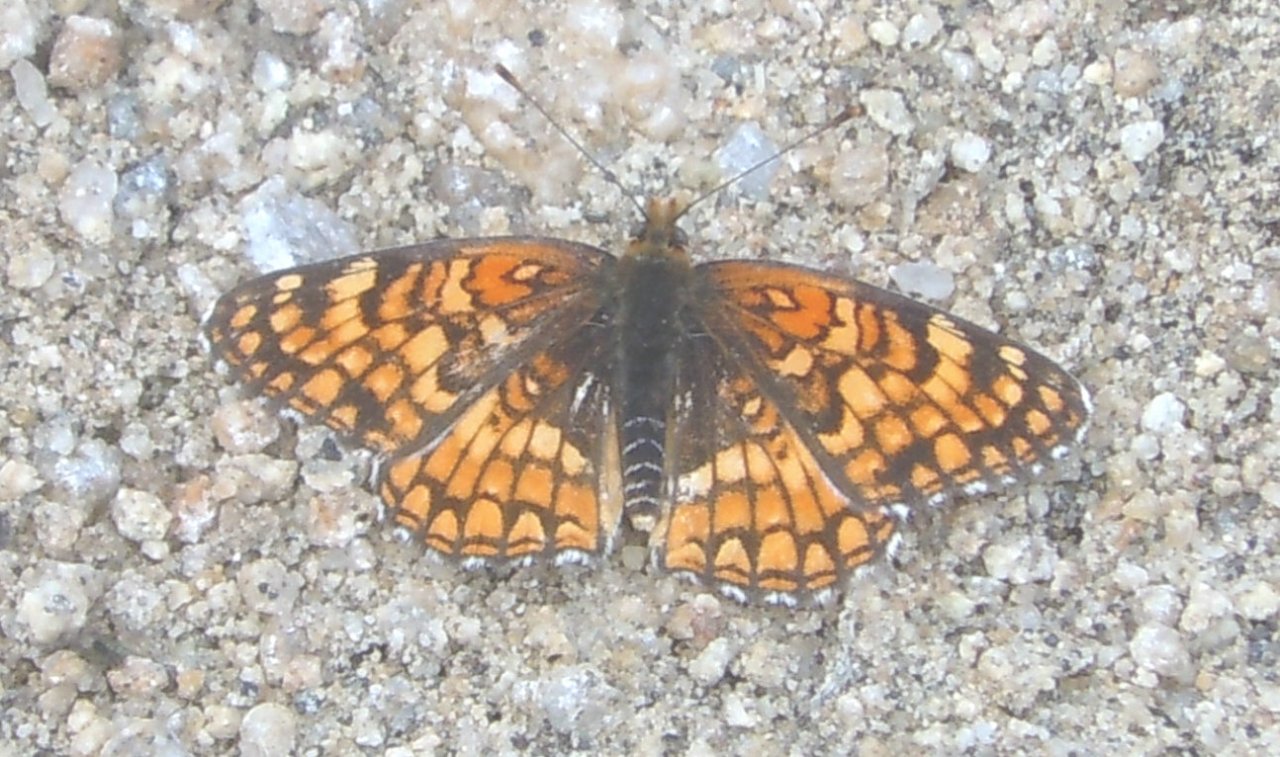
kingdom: Animalia
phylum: Arthropoda
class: Insecta
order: Lepidoptera
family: Nymphalidae
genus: Chlosyne
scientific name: Chlosyne acastus
